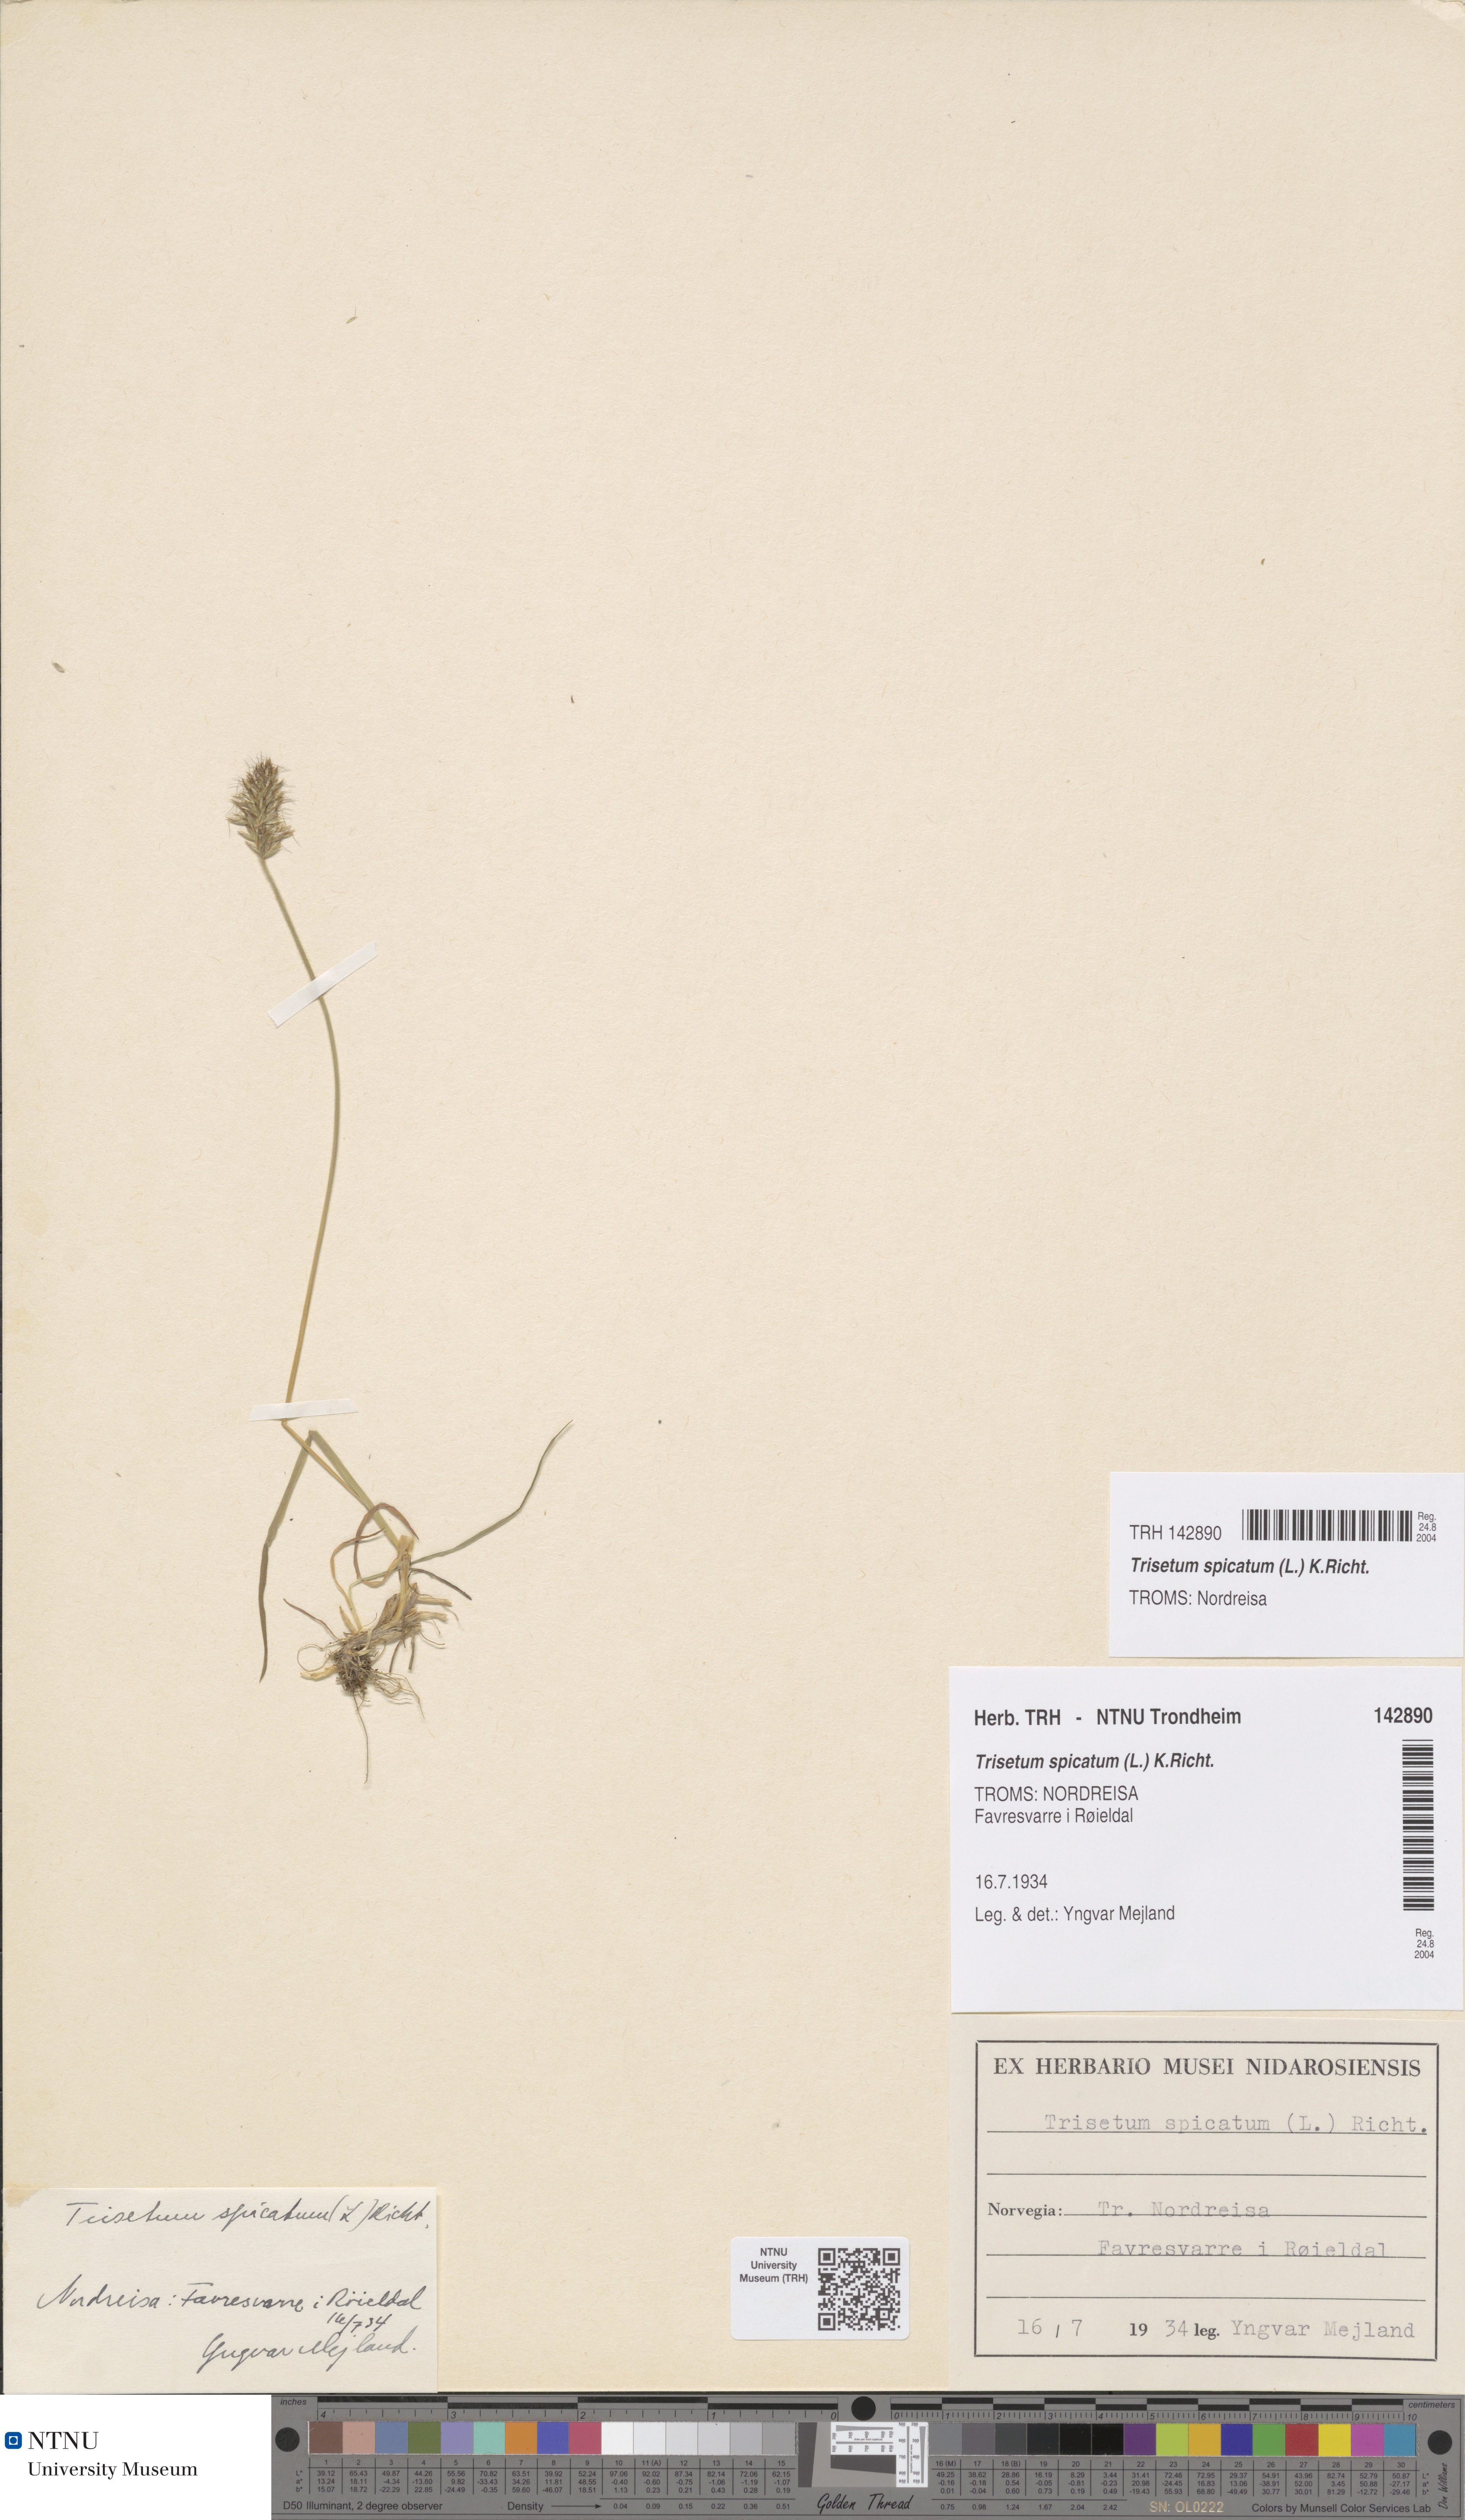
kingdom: Plantae
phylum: Tracheophyta
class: Liliopsida
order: Poales
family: Poaceae
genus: Koeleria
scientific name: Koeleria spicata
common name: Mountain trisetum
